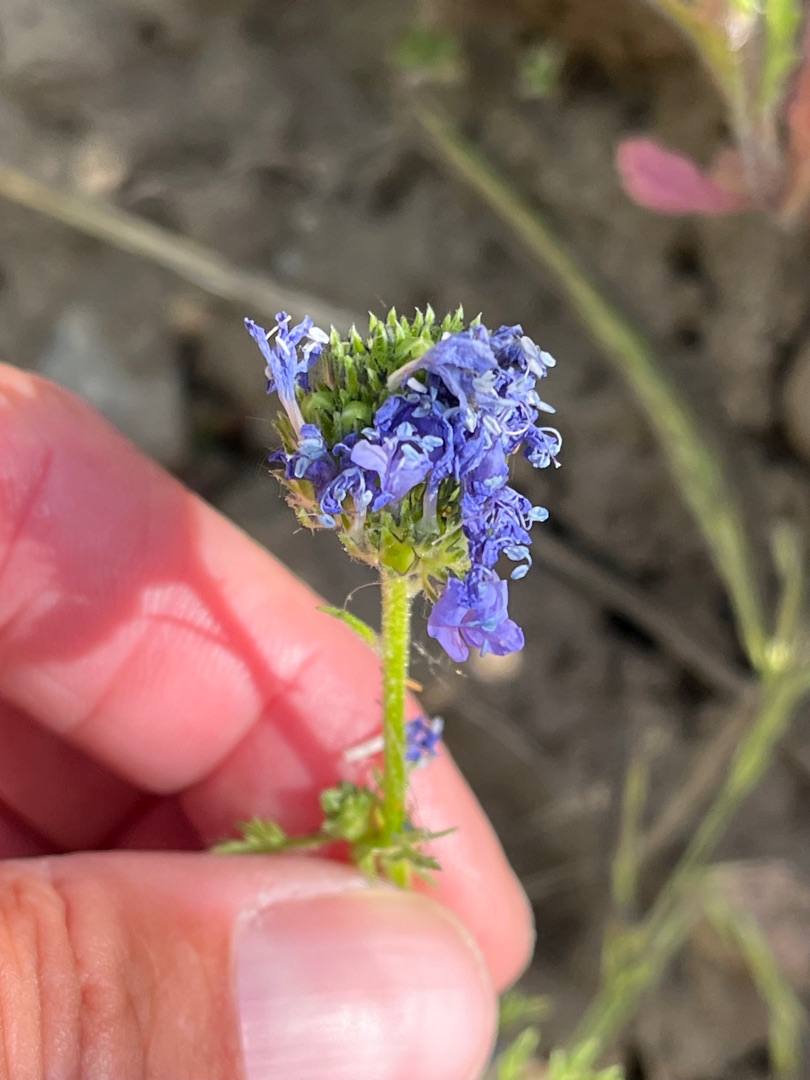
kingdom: Plantae
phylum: Tracheophyta
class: Magnoliopsida
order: Ericales
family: Polemoniaceae
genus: Gilia
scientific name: Gilia achilleifolia
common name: Fjer-blåhoved
